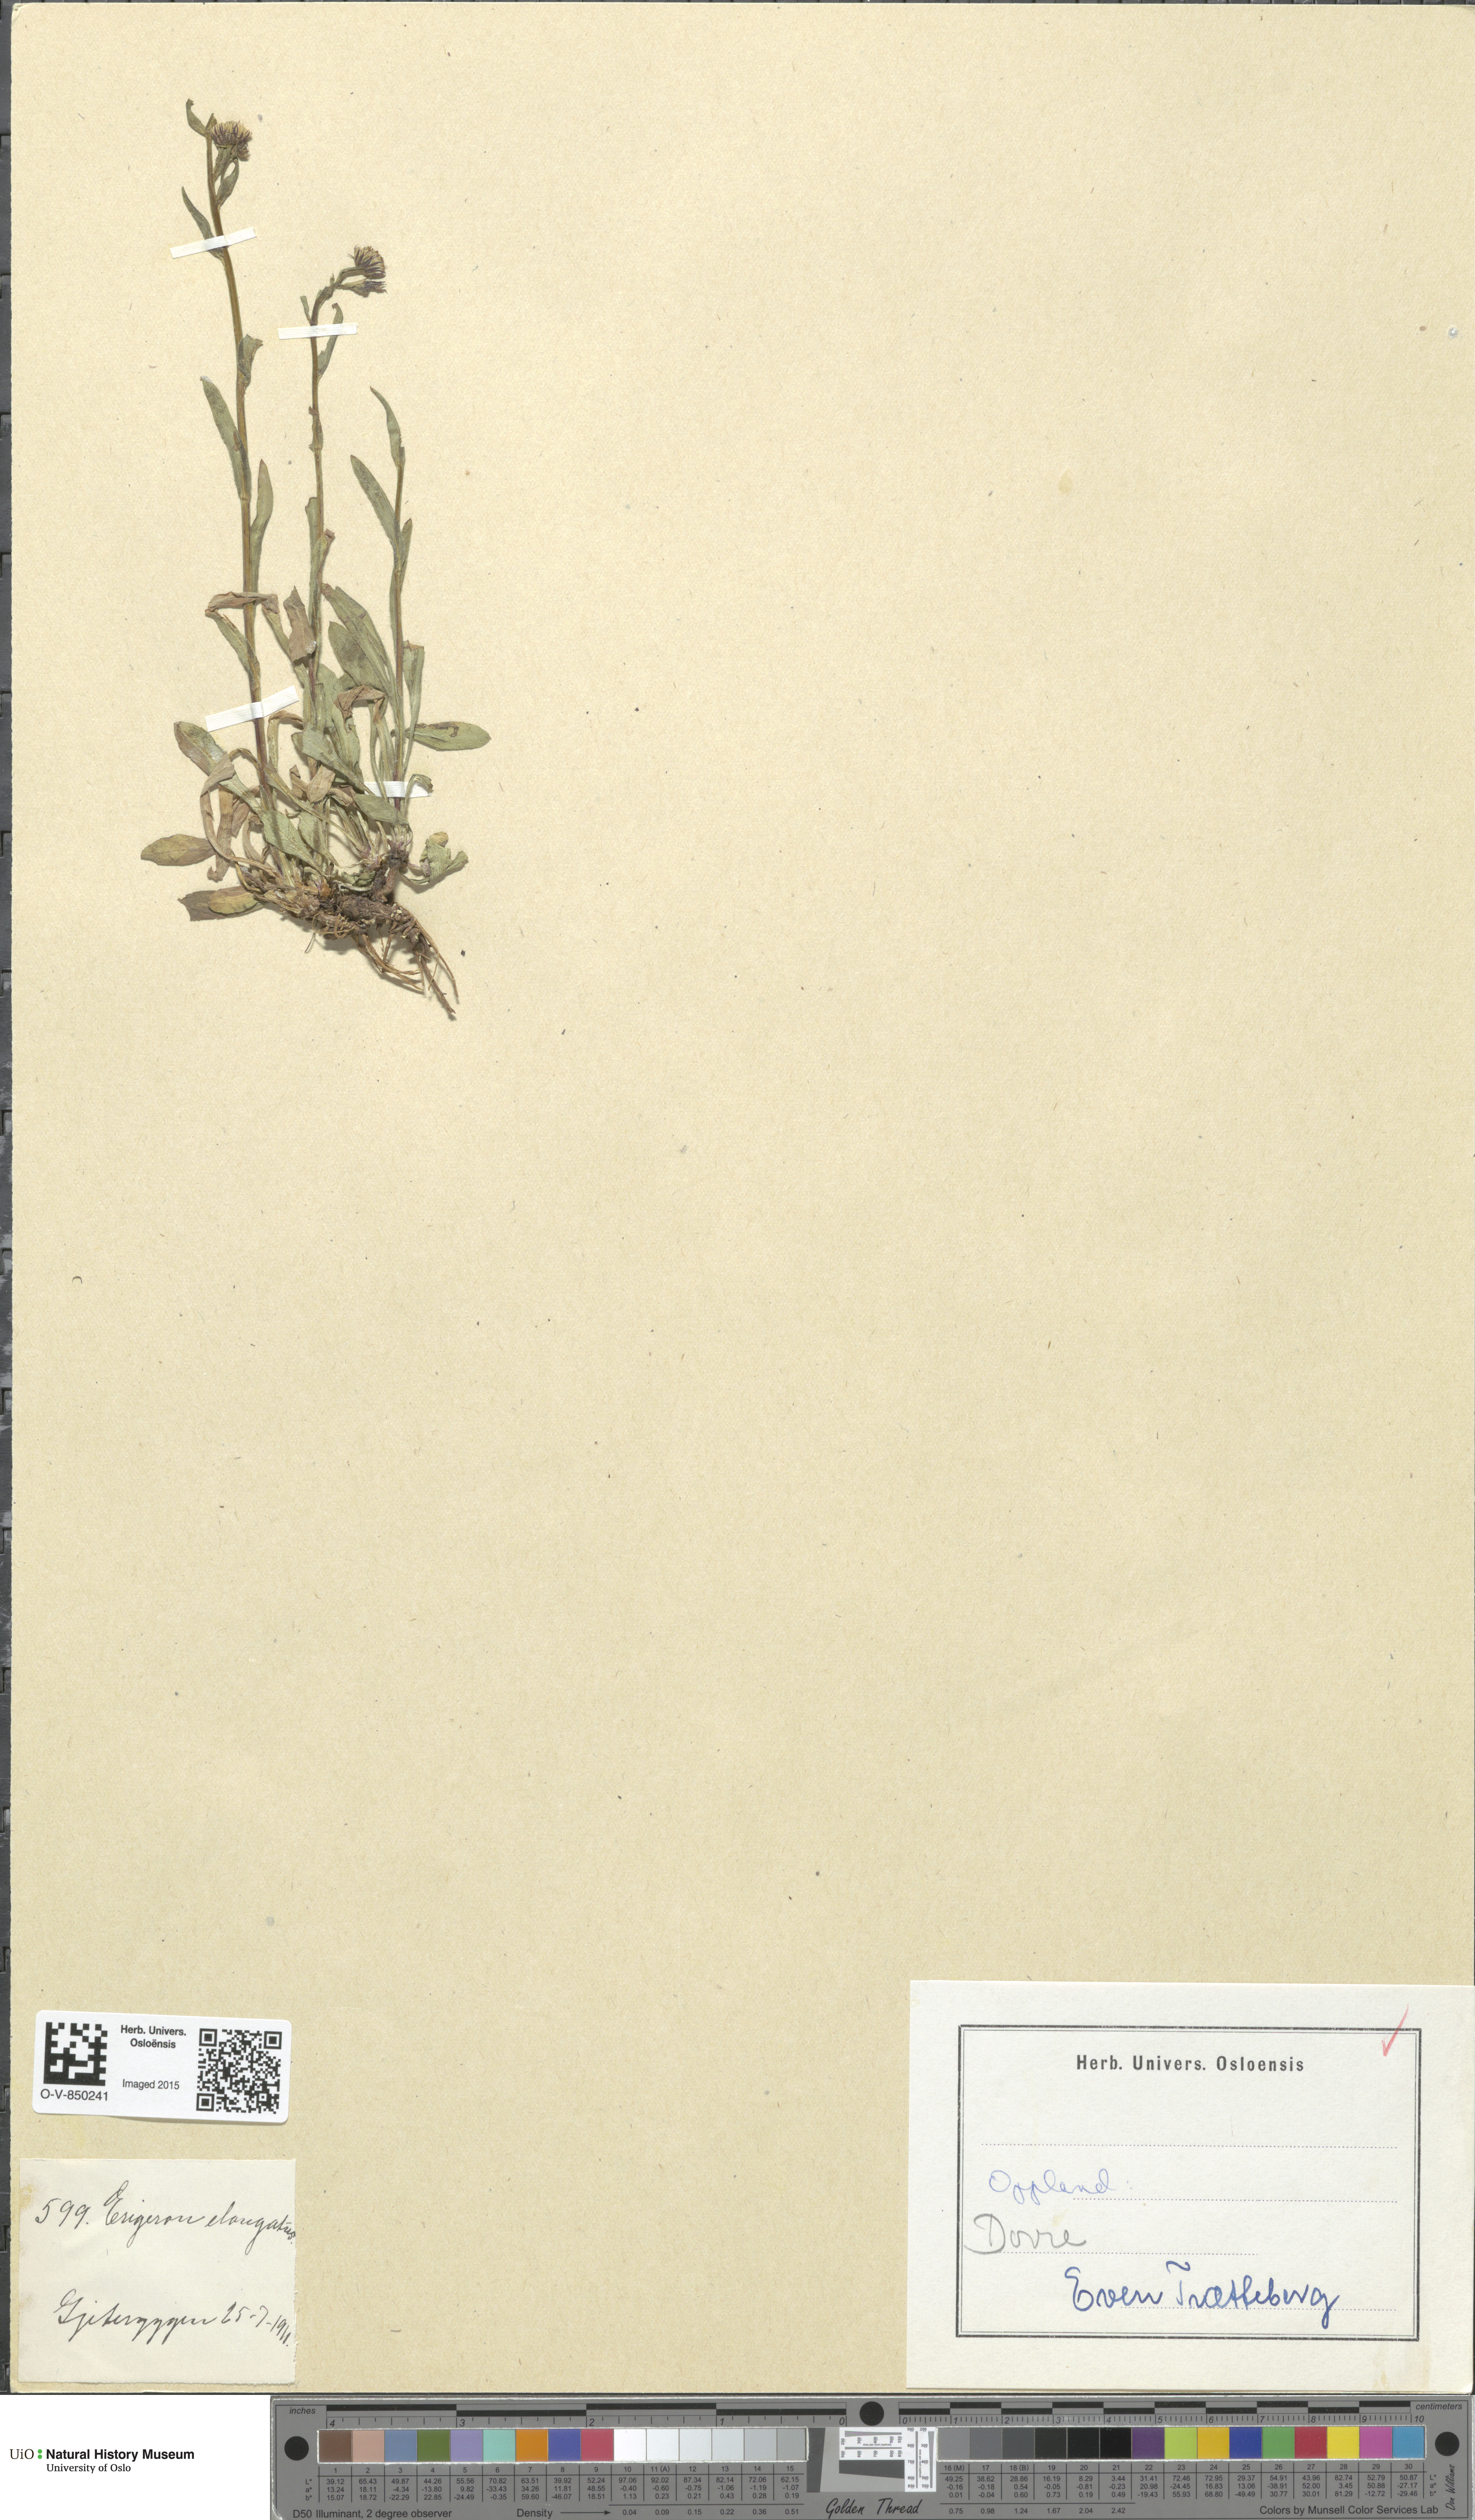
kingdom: Plantae
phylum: Tracheophyta
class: Magnoliopsida
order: Asterales
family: Asteraceae
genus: Erigeron
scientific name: Erigeron politus
